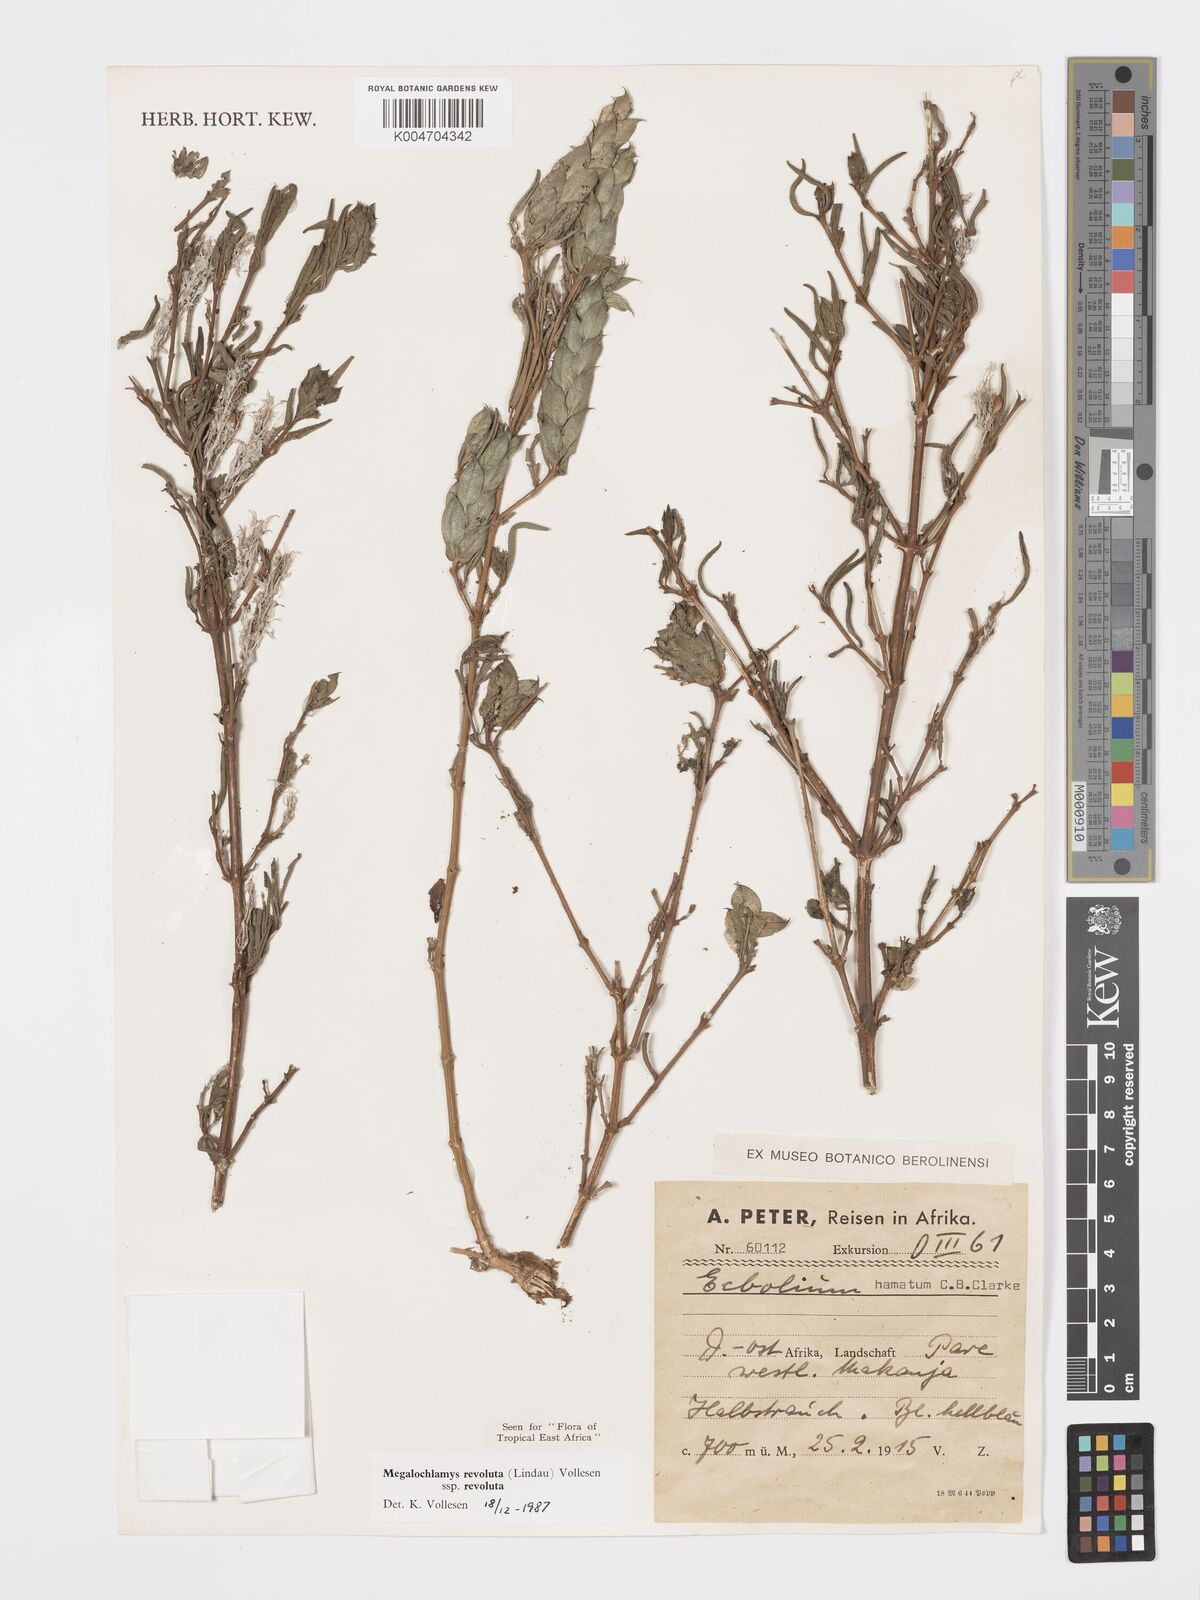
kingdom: Plantae
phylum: Tracheophyta
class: Magnoliopsida
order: Lamiales
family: Acanthaceae
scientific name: Acanthaceae
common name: Acanthaceae
